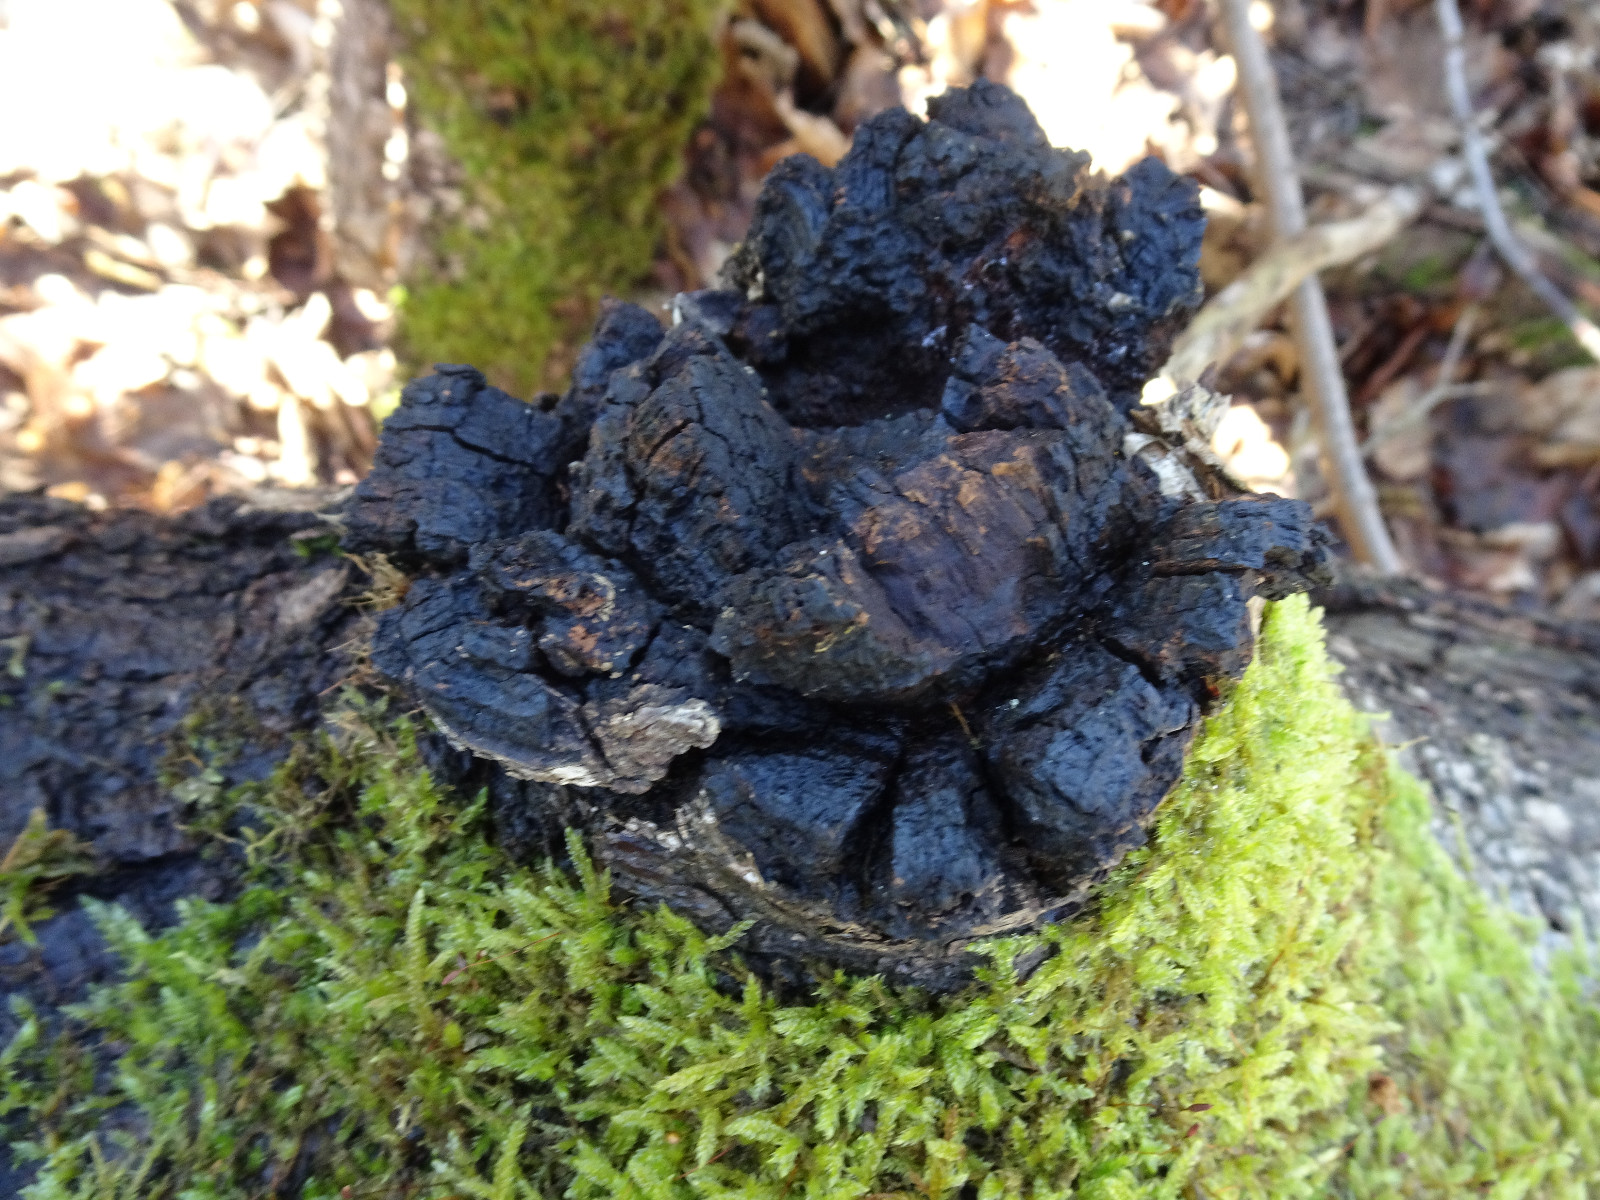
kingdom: Fungi
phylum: Basidiomycota
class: Agaricomycetes
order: Hymenochaetales
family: Hymenochaetaceae
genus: Inonotus
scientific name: Inonotus obliquus
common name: birke-spejlporesvamp
